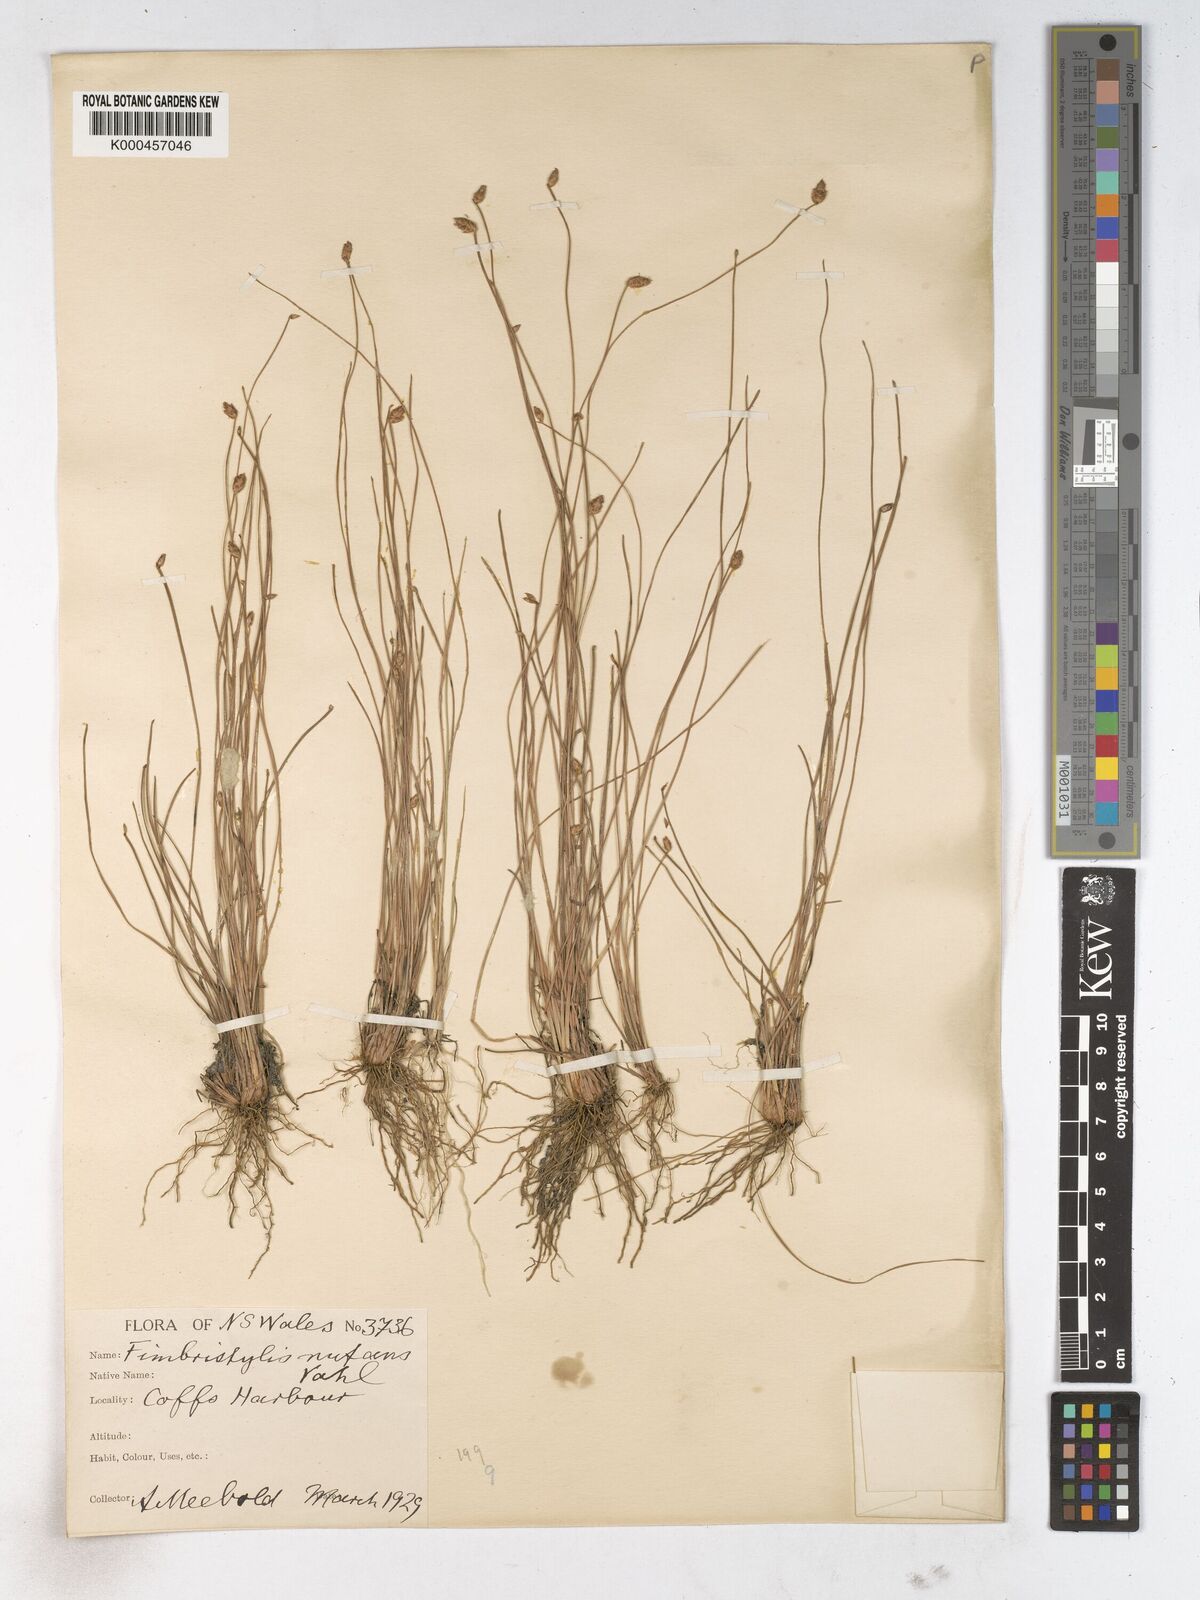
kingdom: Plantae
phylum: Tracheophyta
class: Liliopsida
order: Poales
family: Cyperaceae
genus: Fimbristylis
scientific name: Fimbristylis nutans
